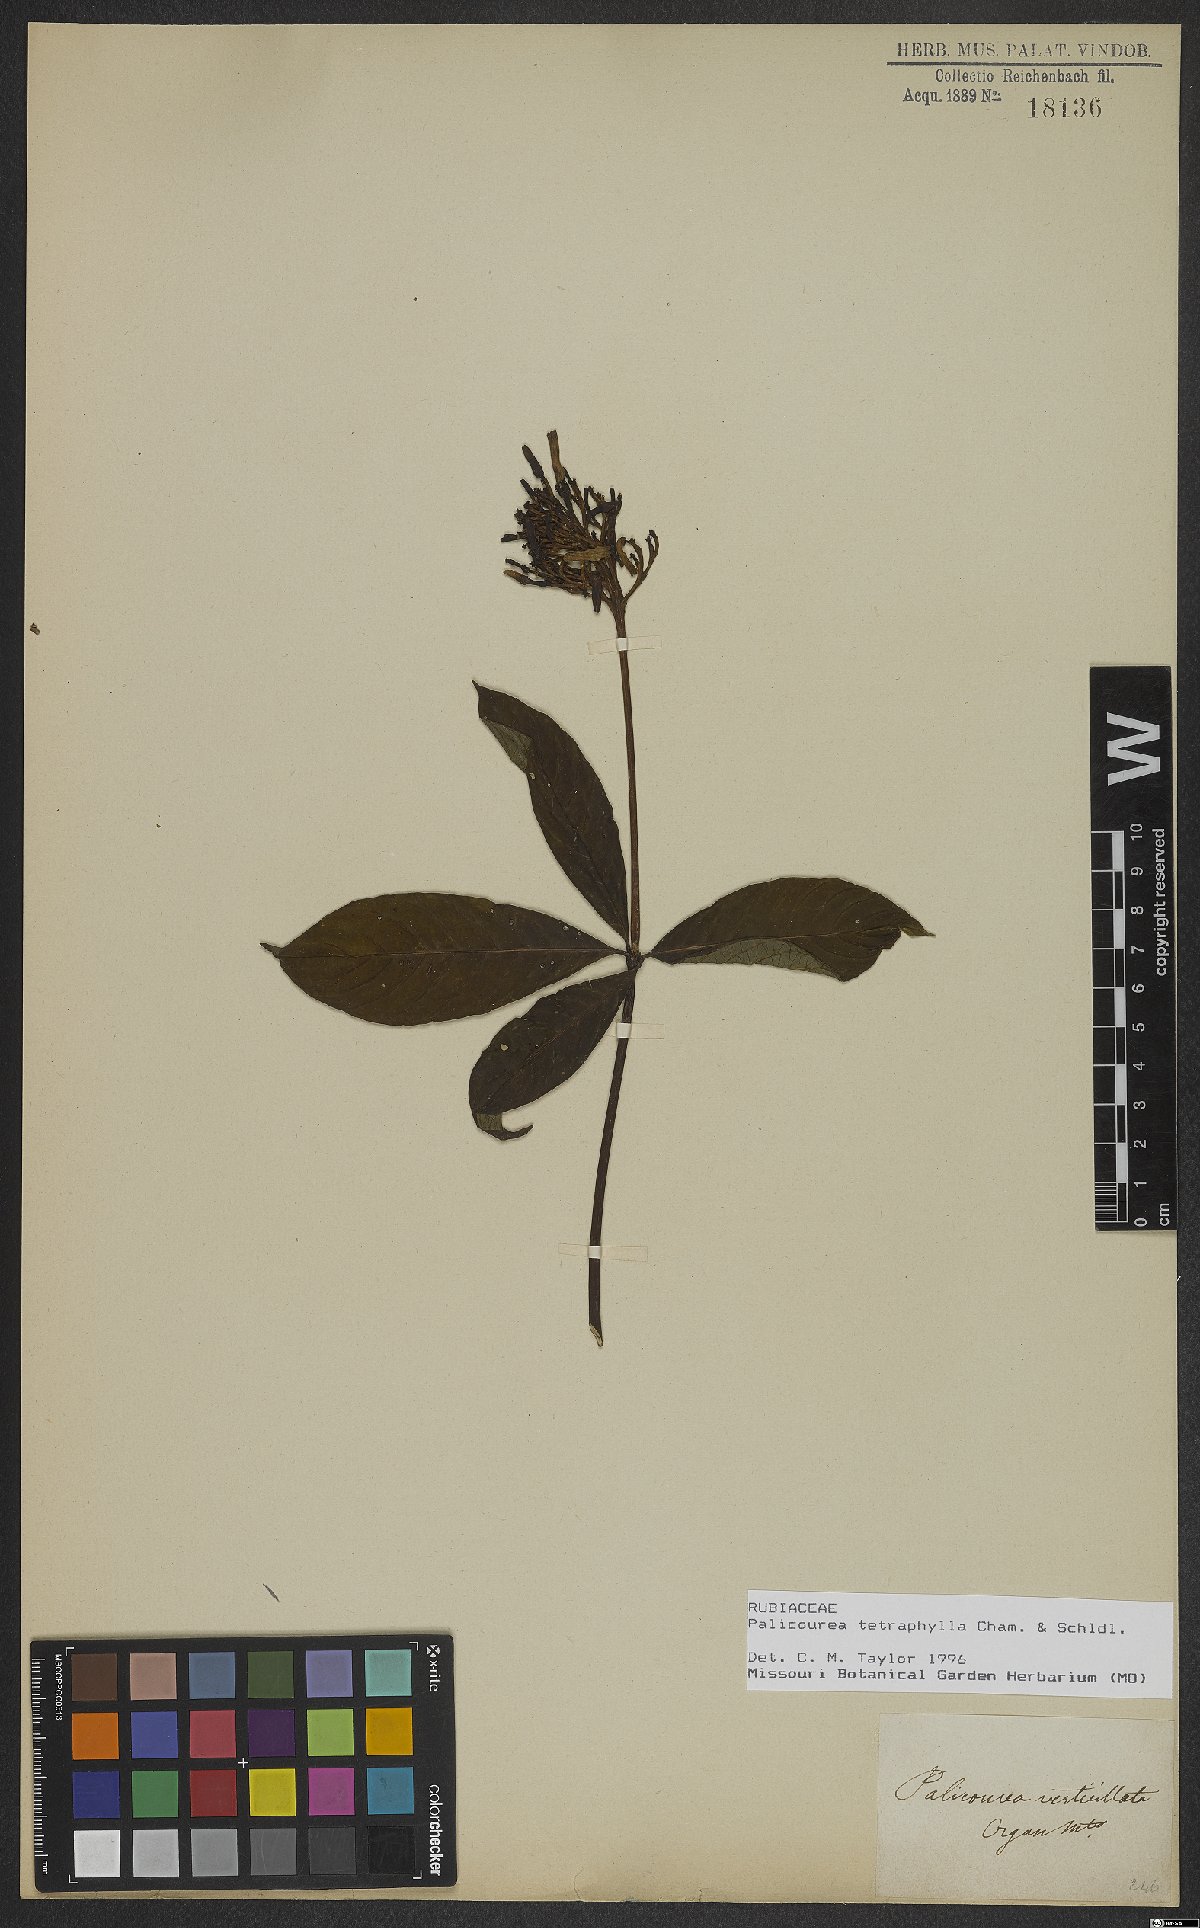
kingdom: Plantae
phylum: Tracheophyta
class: Magnoliopsida
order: Gentianales
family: Rubiaceae
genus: Palicourea
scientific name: Palicourea tetraphylla
